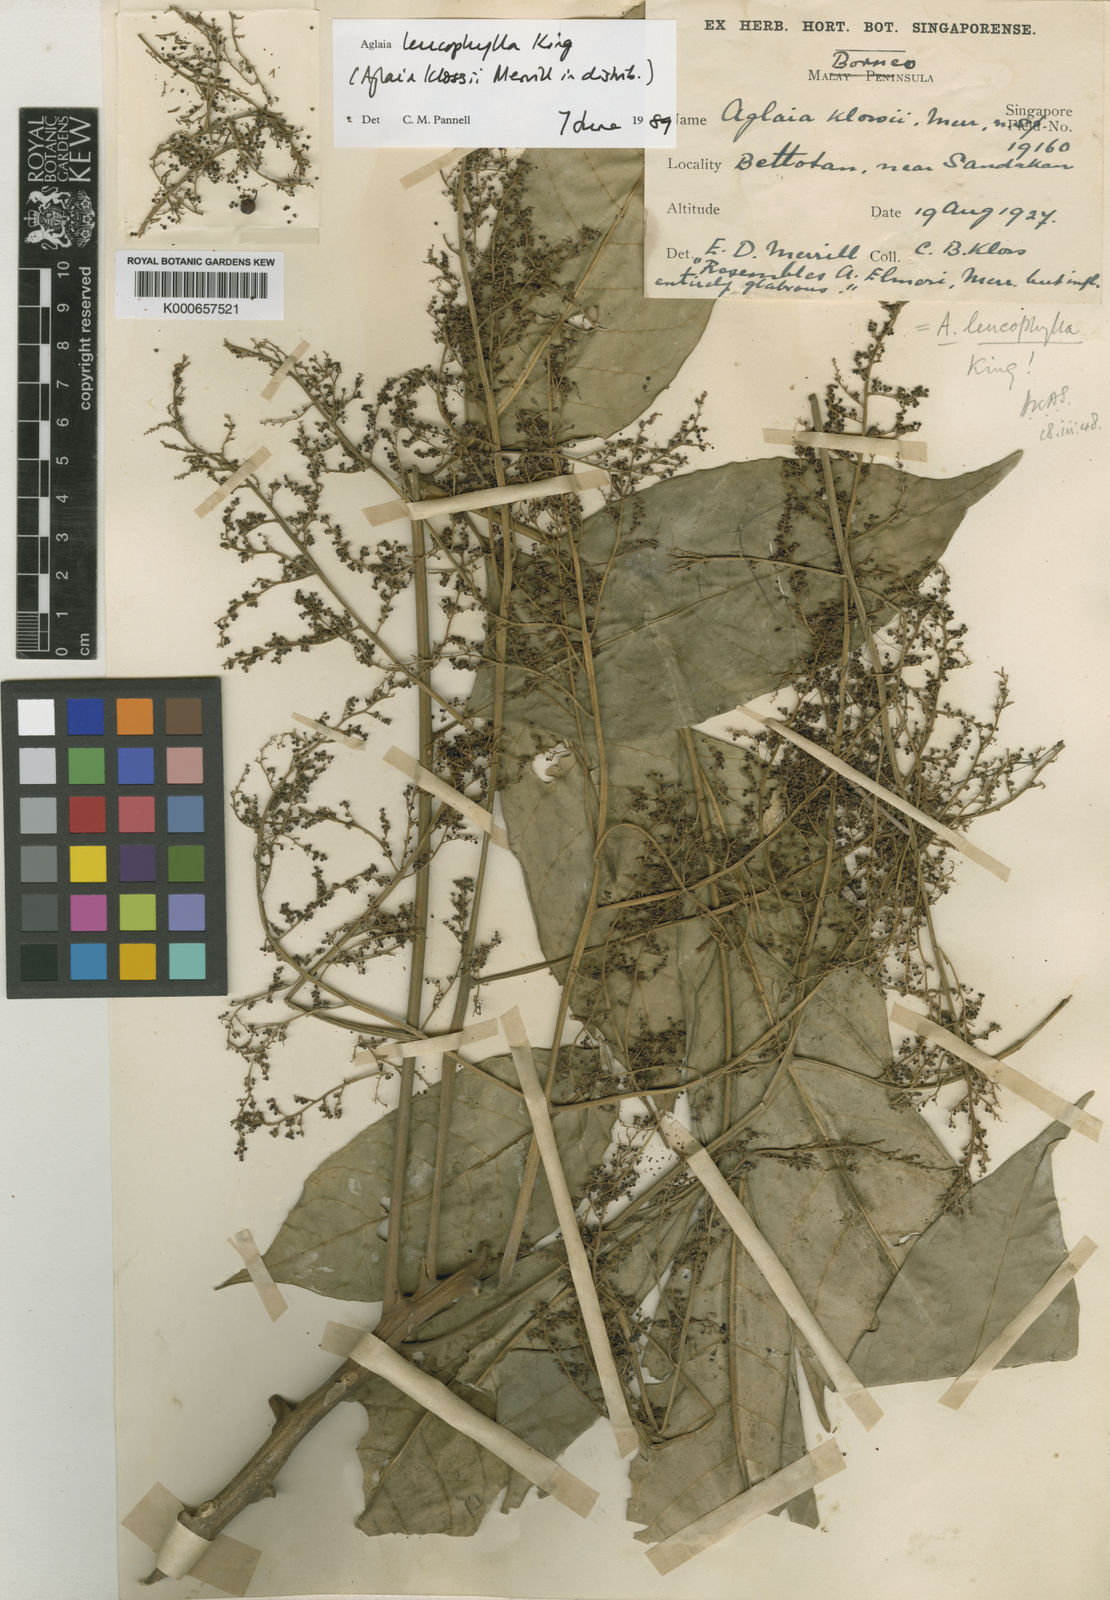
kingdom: Plantae
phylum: Tracheophyta
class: Magnoliopsida
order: Sapindales
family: Meliaceae
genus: Aglaia
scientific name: Aglaia leucophylla
